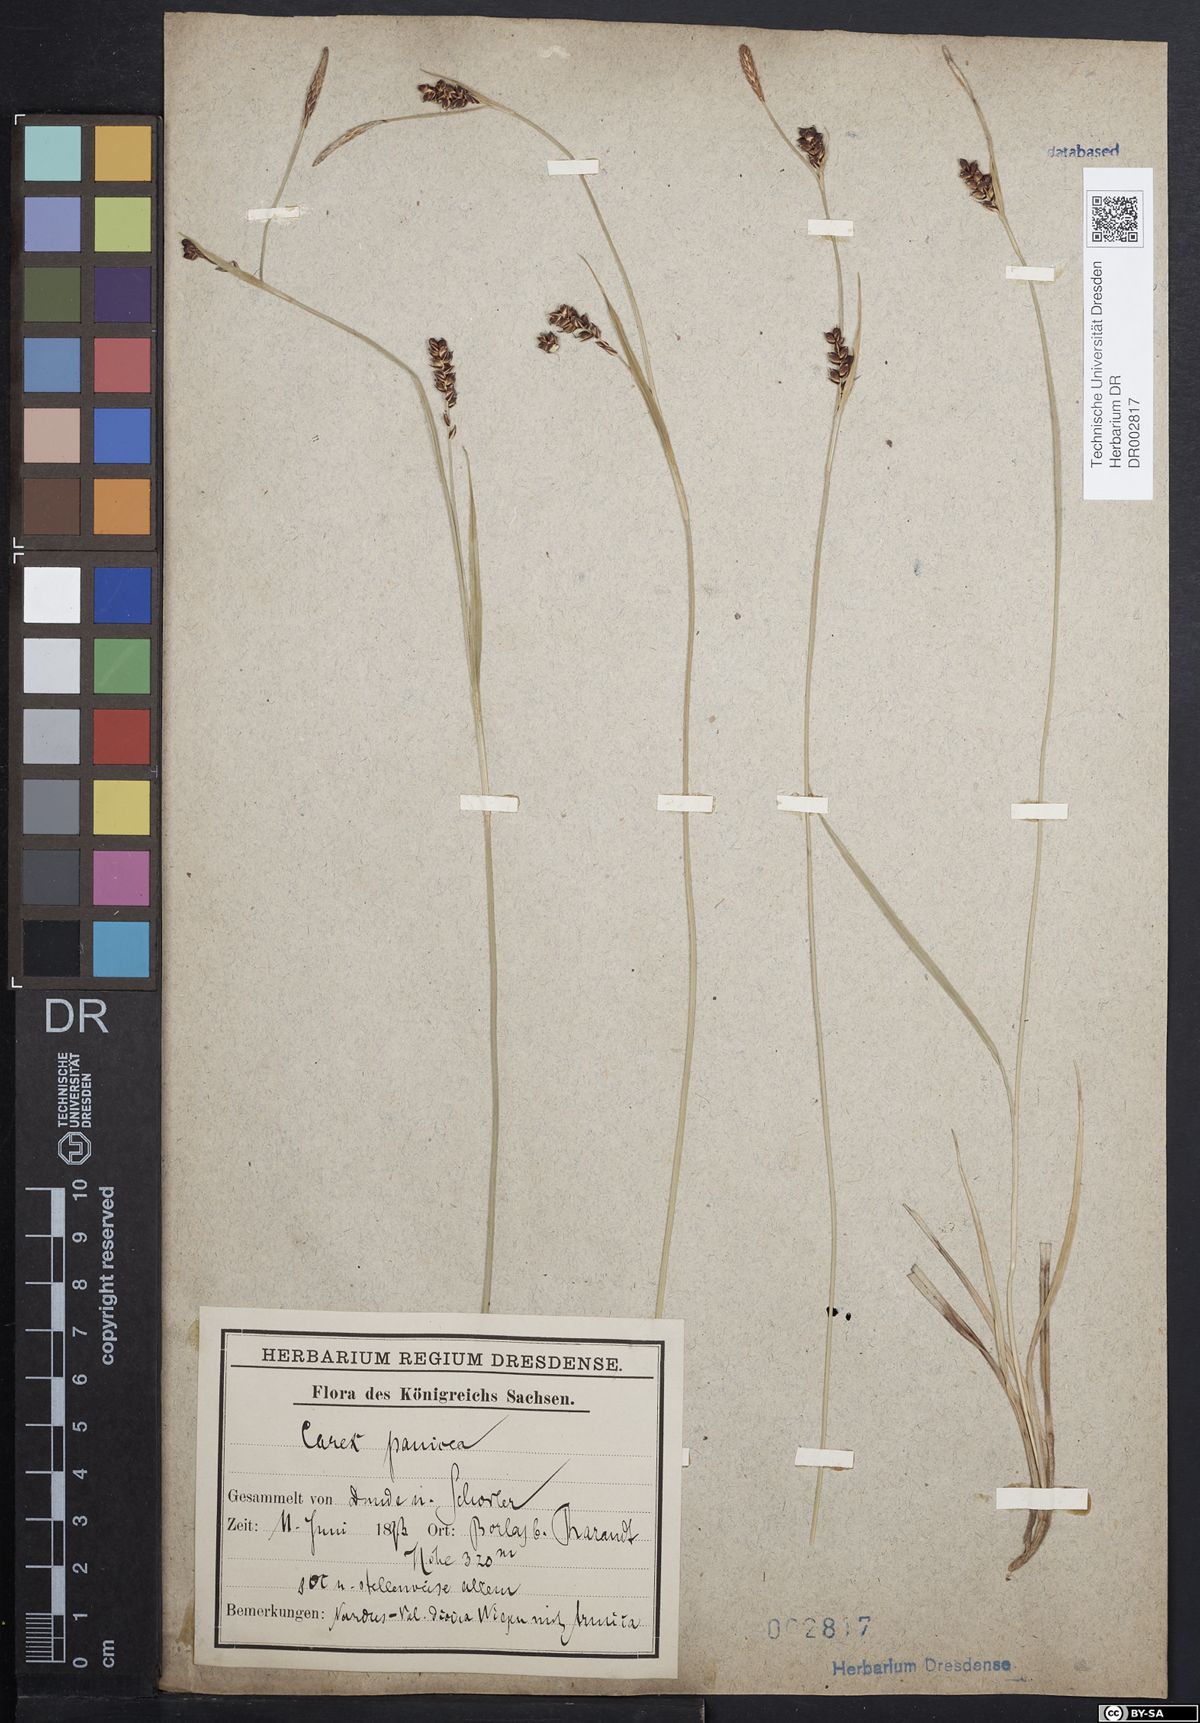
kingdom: Plantae
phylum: Tracheophyta
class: Liliopsida
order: Poales
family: Cyperaceae
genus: Carex
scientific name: Carex panicea
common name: Carnation sedge
